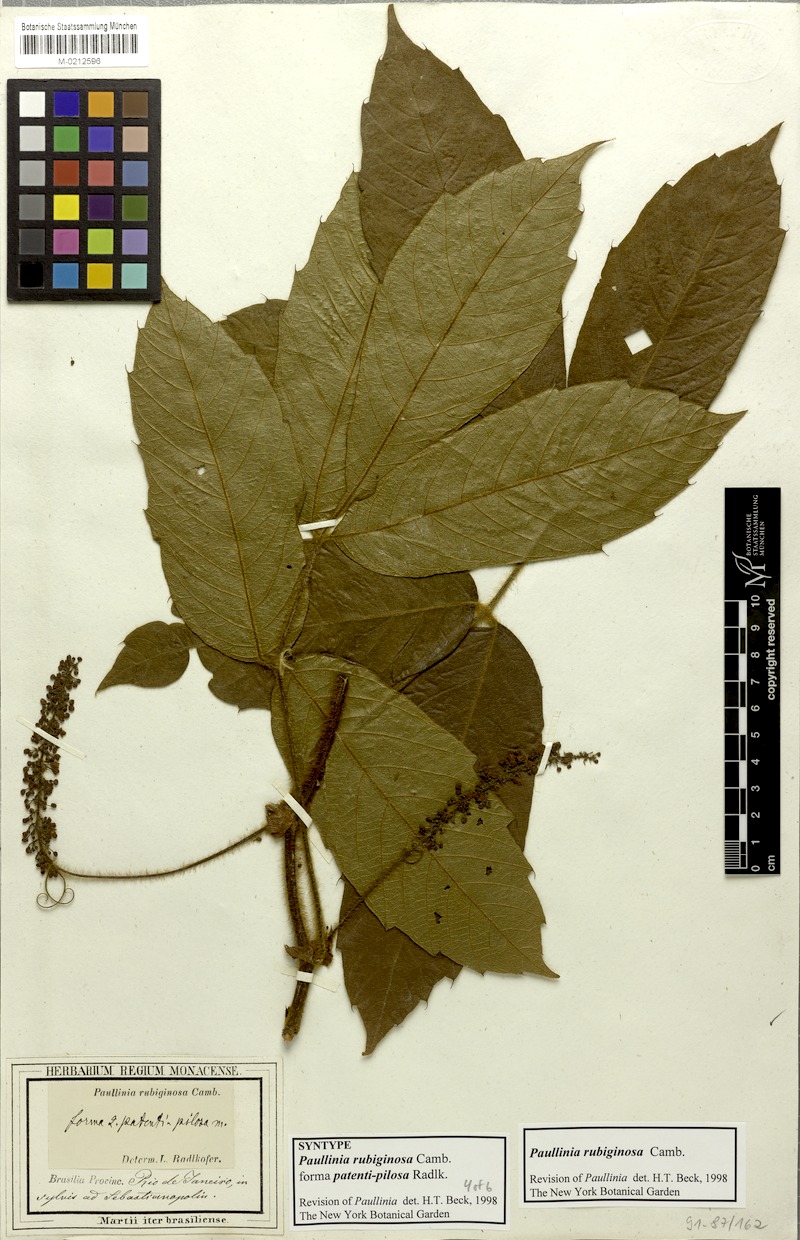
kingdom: Plantae
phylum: Tracheophyta
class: Magnoliopsida
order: Sapindales
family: Sapindaceae
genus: Paullinia
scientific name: Paullinia rubiginosa
